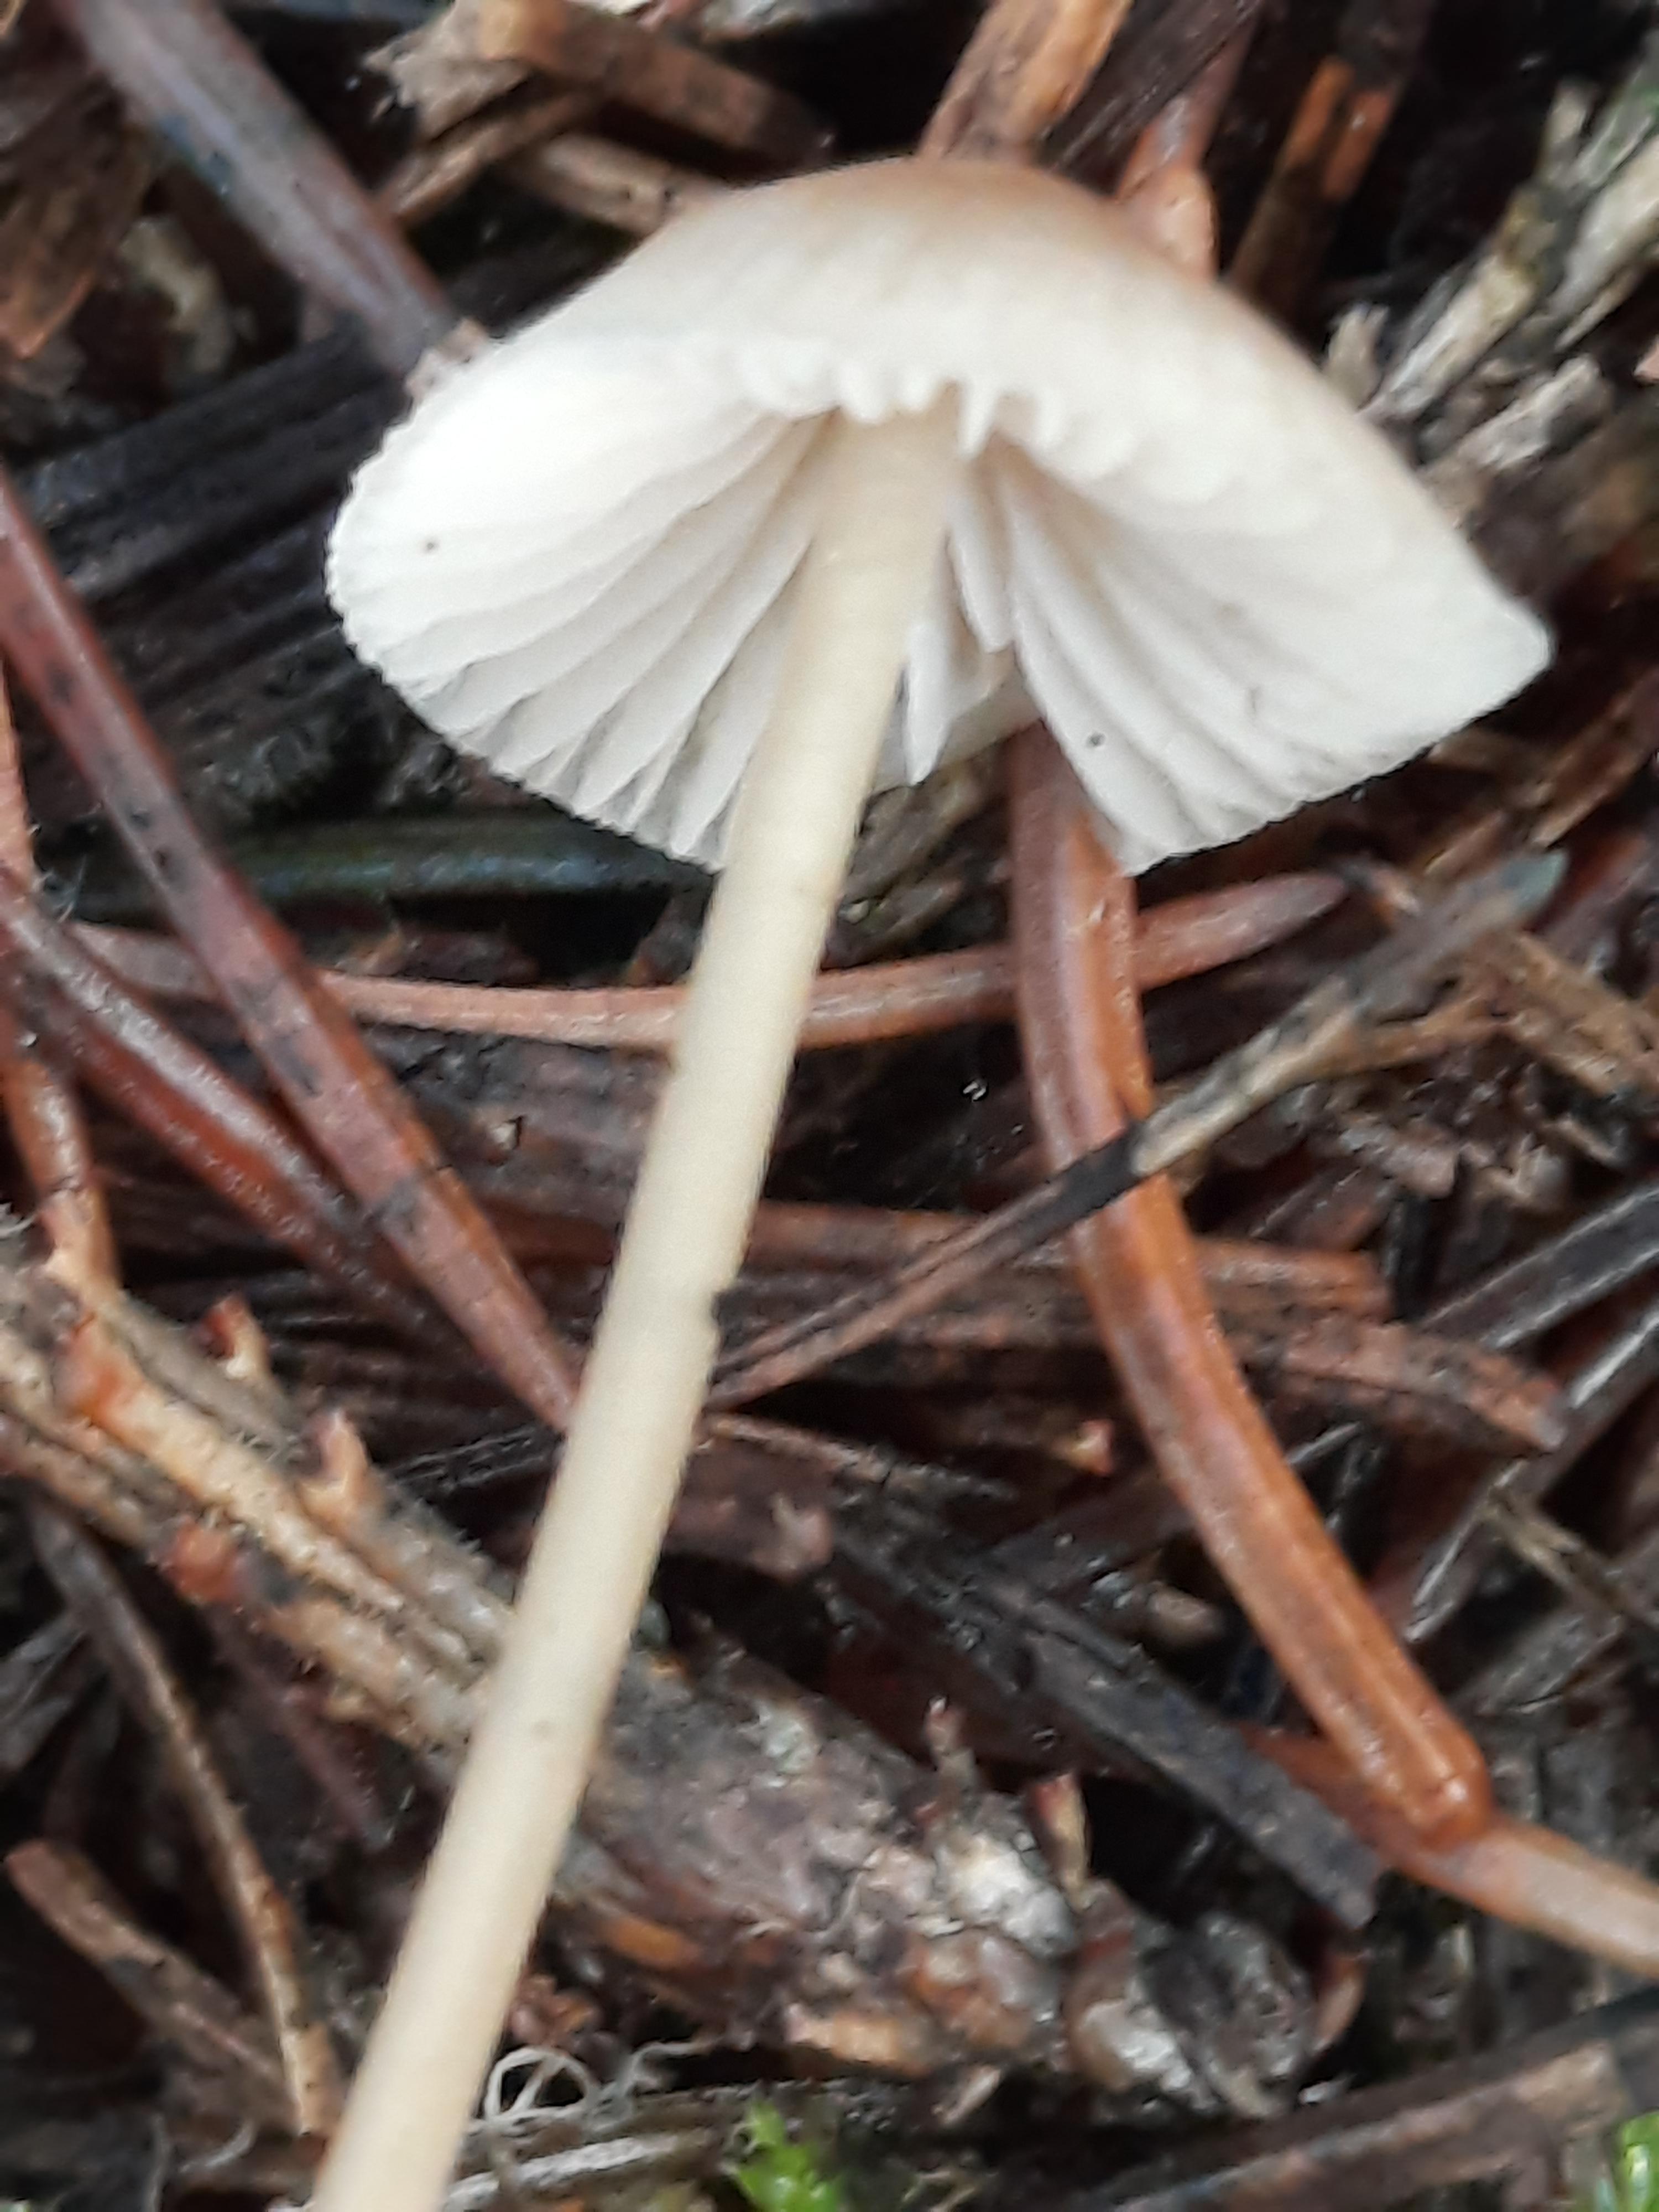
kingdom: Fungi
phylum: Basidiomycota
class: Agaricomycetes
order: Agaricales
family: Mycenaceae
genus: Mycena
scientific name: Mycena
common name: huesvamp
